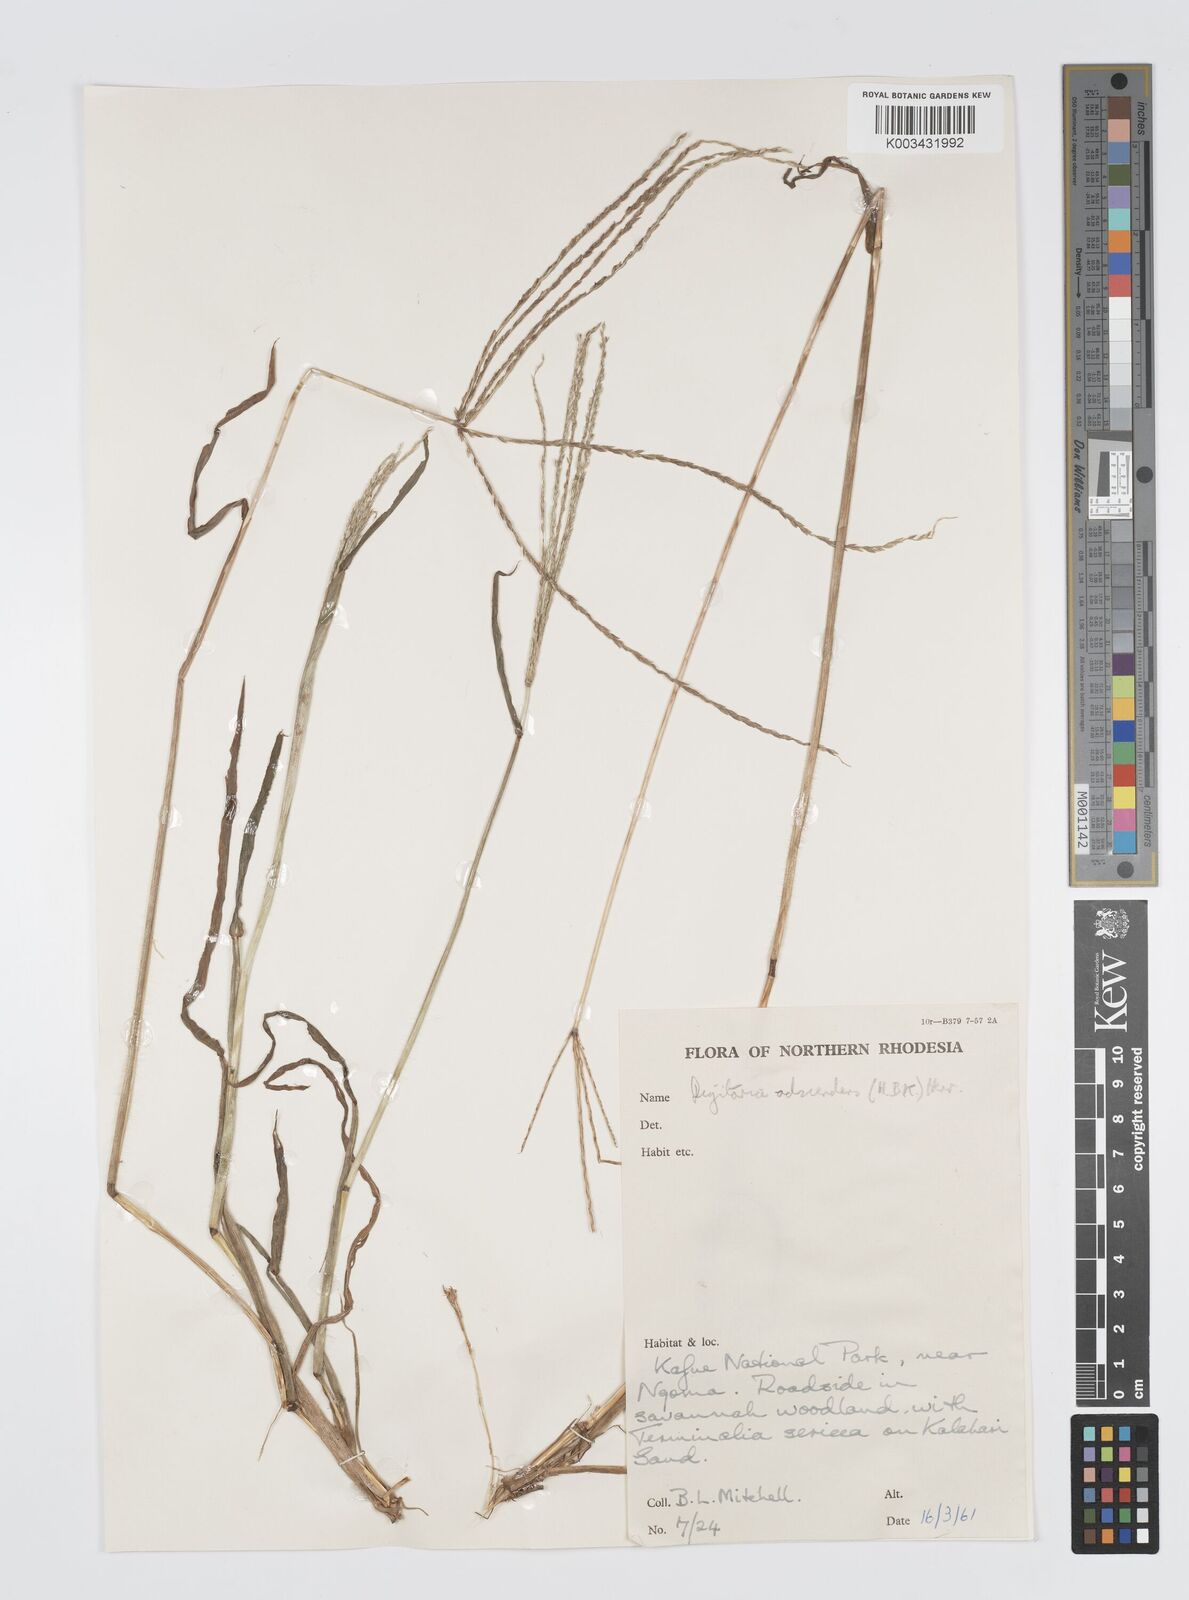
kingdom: Plantae
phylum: Tracheophyta
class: Liliopsida
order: Poales
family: Poaceae
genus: Digitaria
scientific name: Digitaria milanjiana
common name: Madagascar crabgrass
